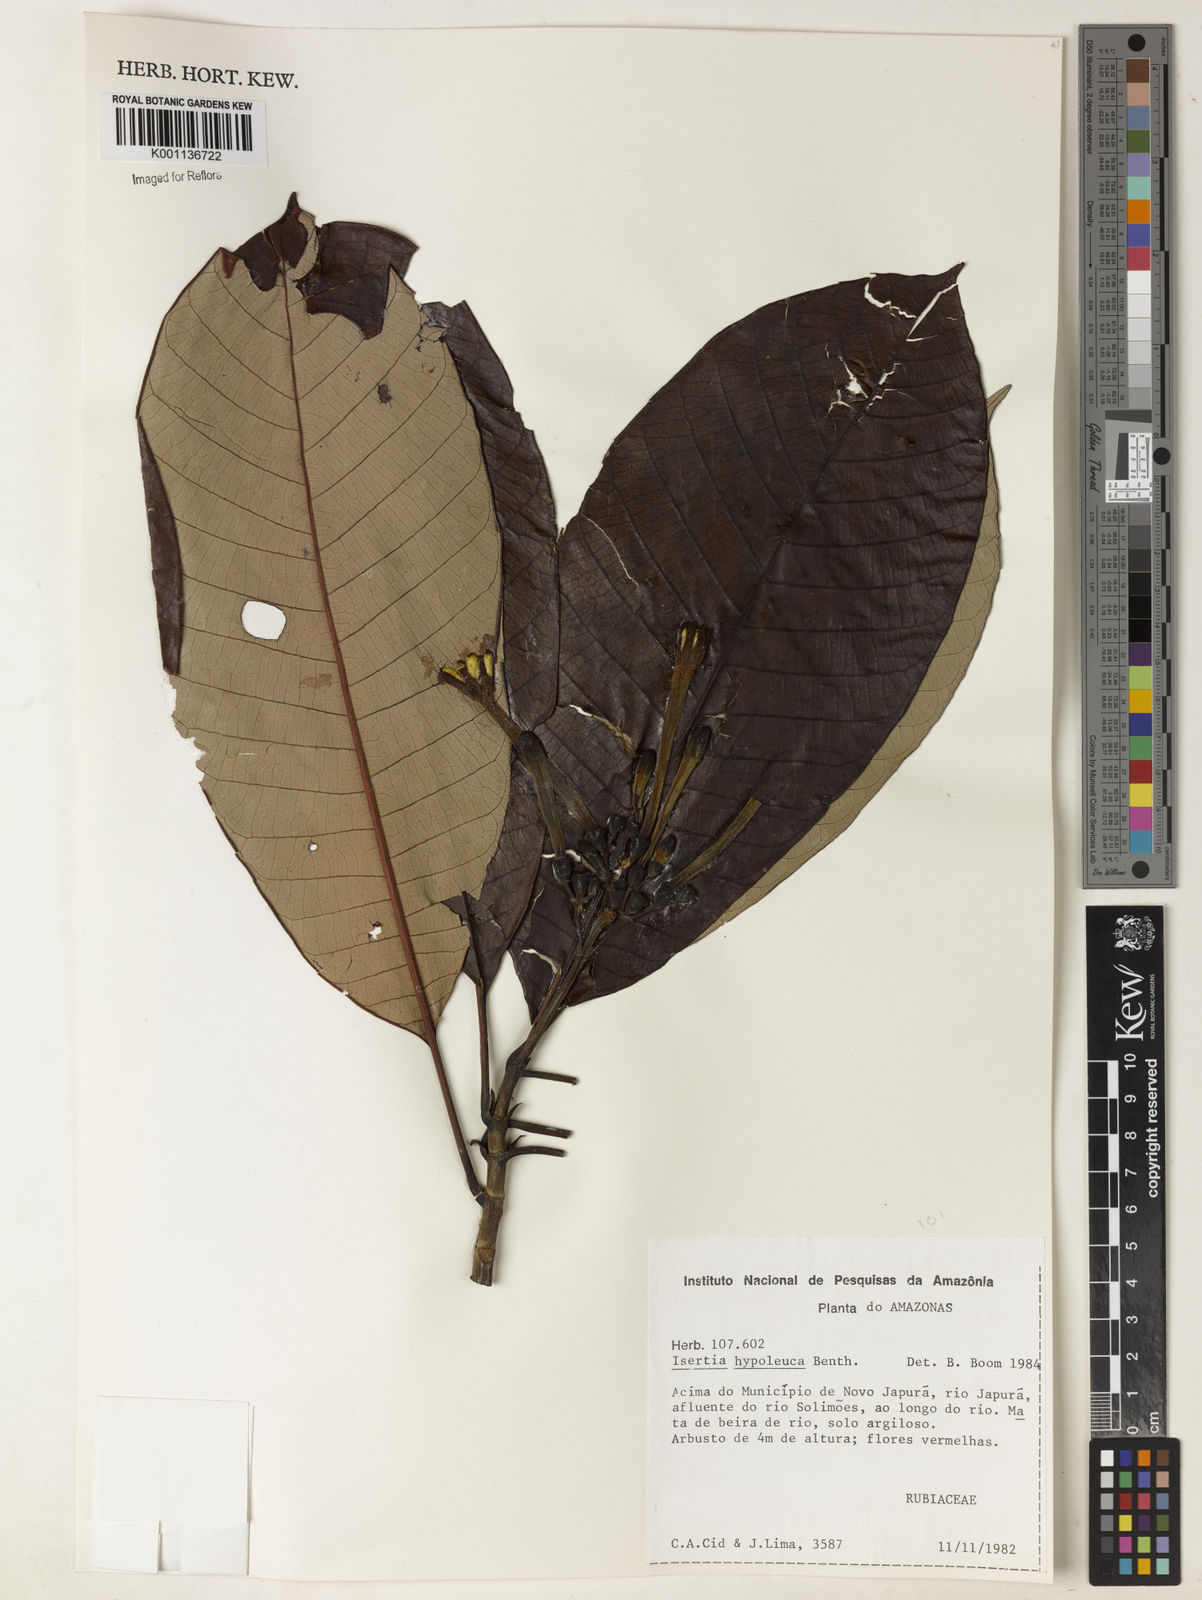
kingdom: Plantae
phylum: Tracheophyta
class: Magnoliopsida
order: Gentianales
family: Rubiaceae
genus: Isertia
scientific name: Isertia hypoleuca
